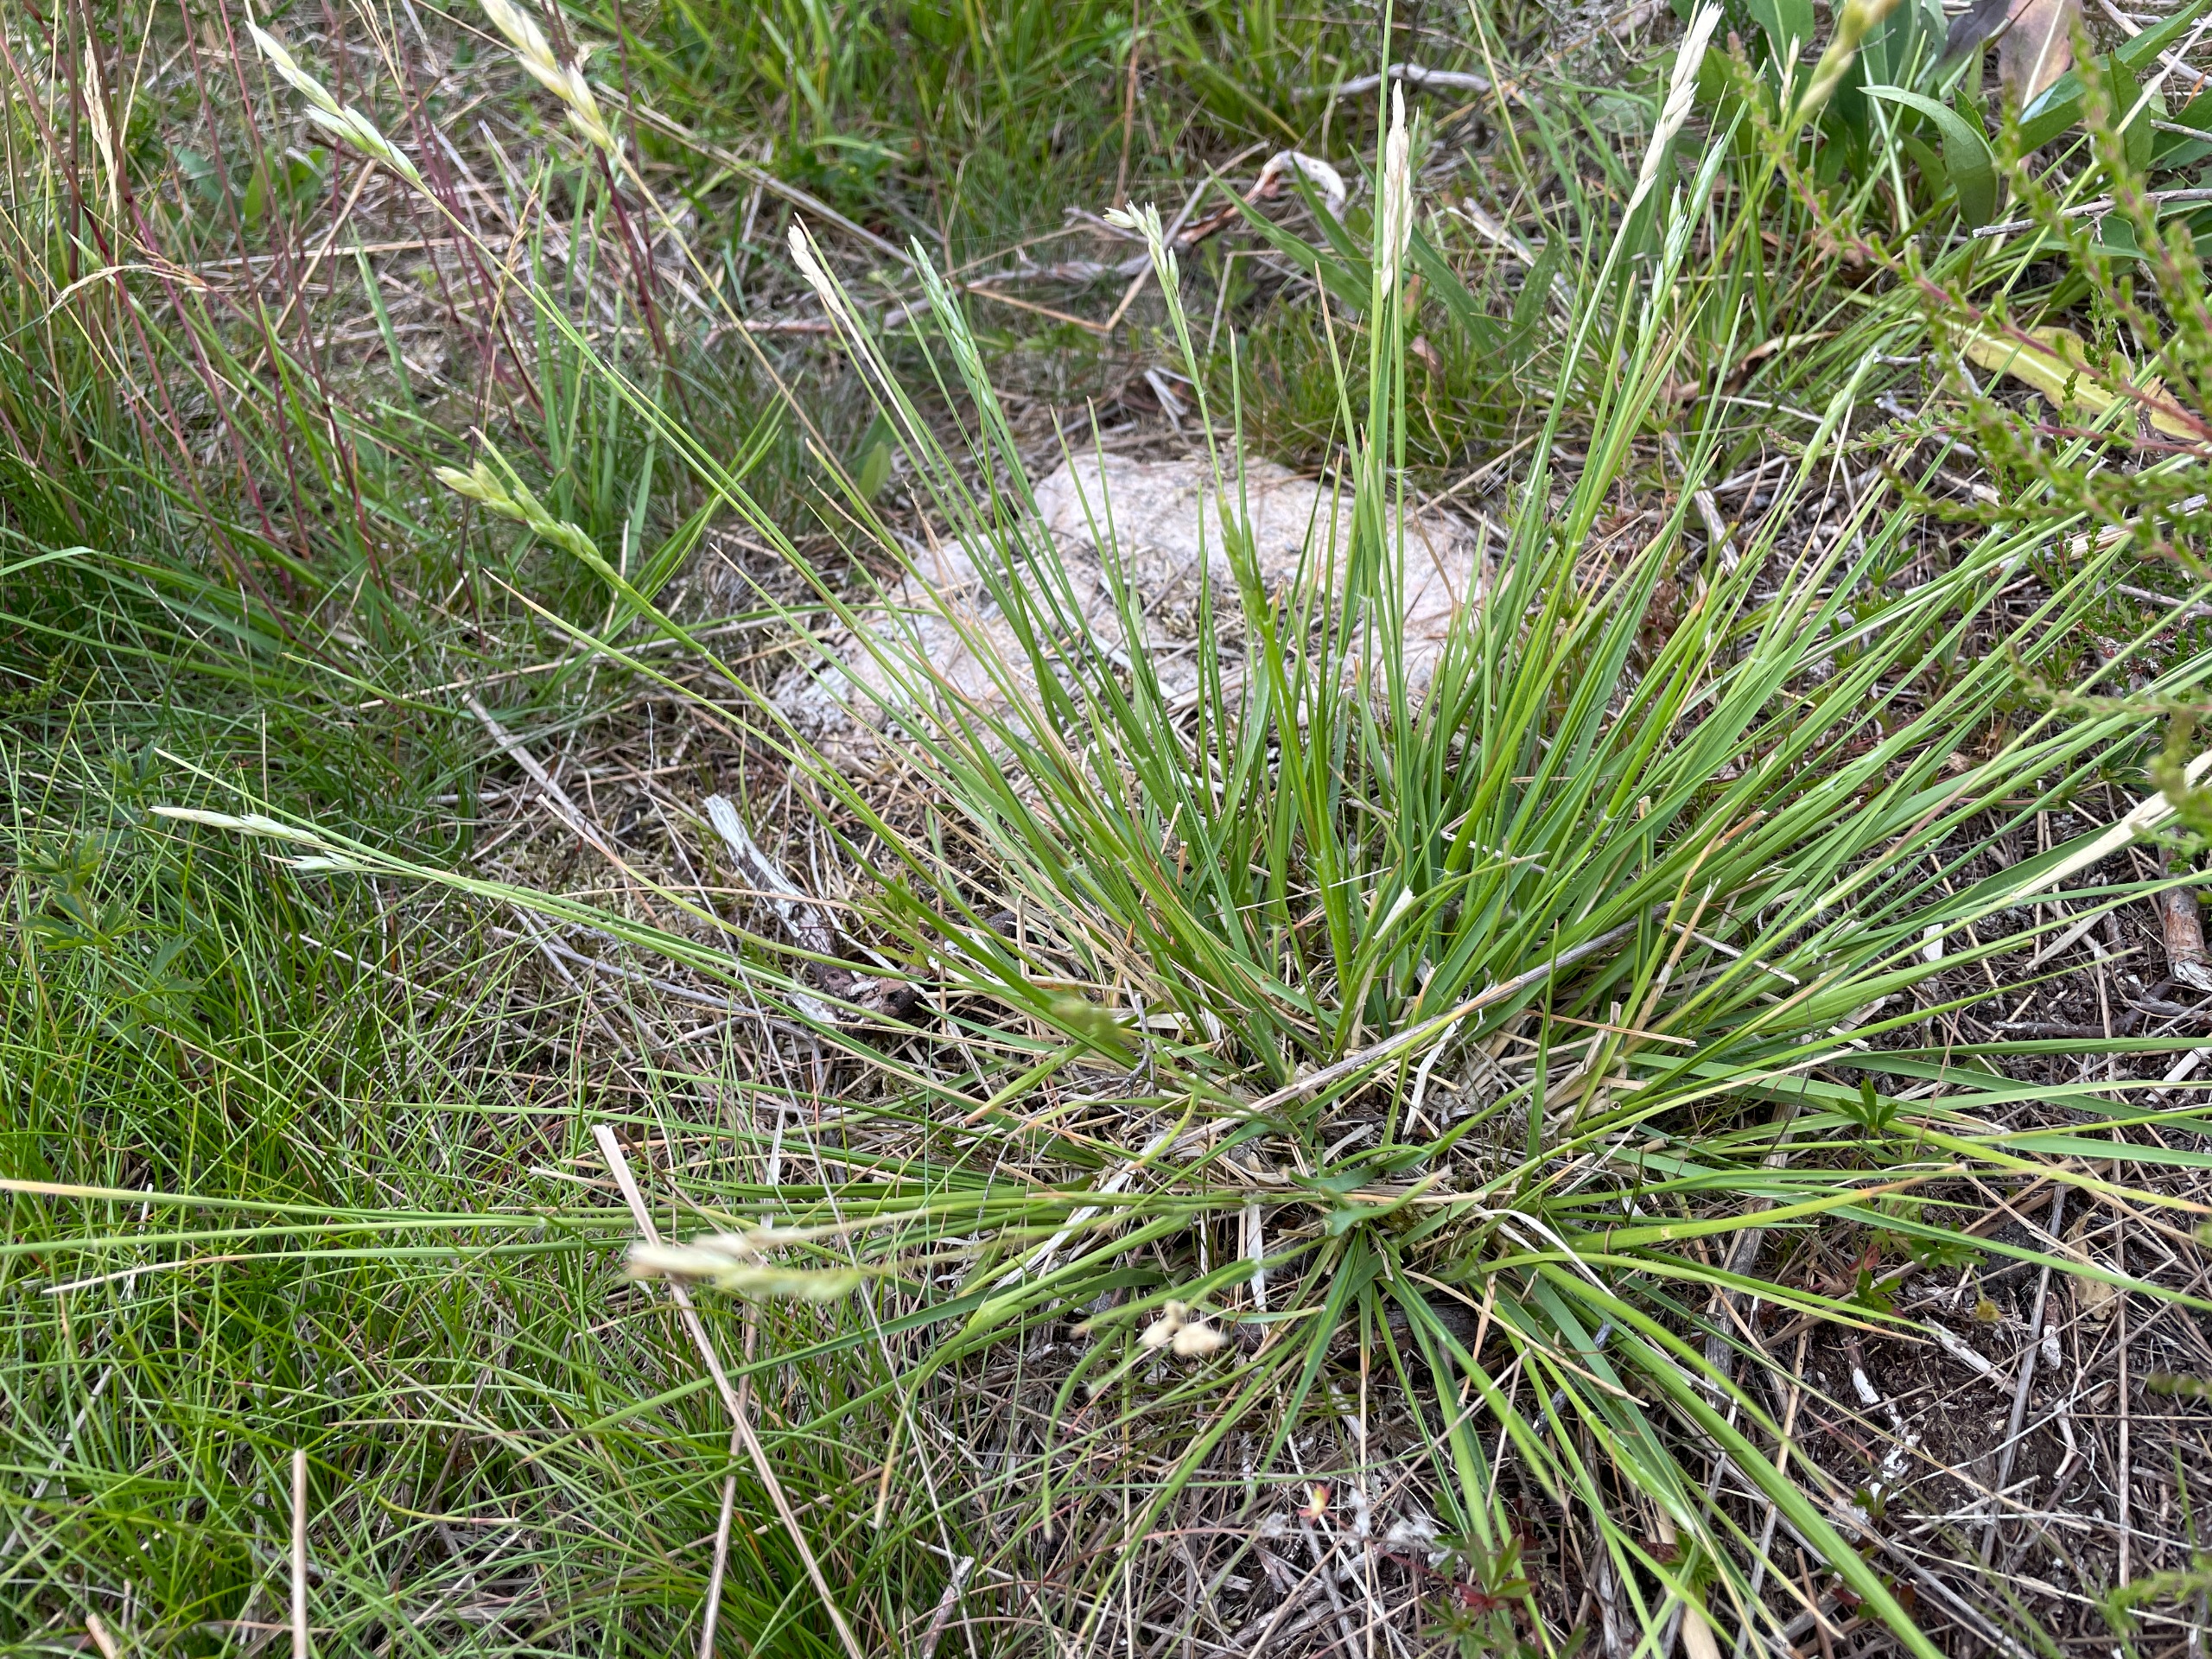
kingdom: Plantae
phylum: Tracheophyta
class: Liliopsida
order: Poales
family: Poaceae
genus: Danthonia
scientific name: Danthonia decumbens
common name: Tandbælg
